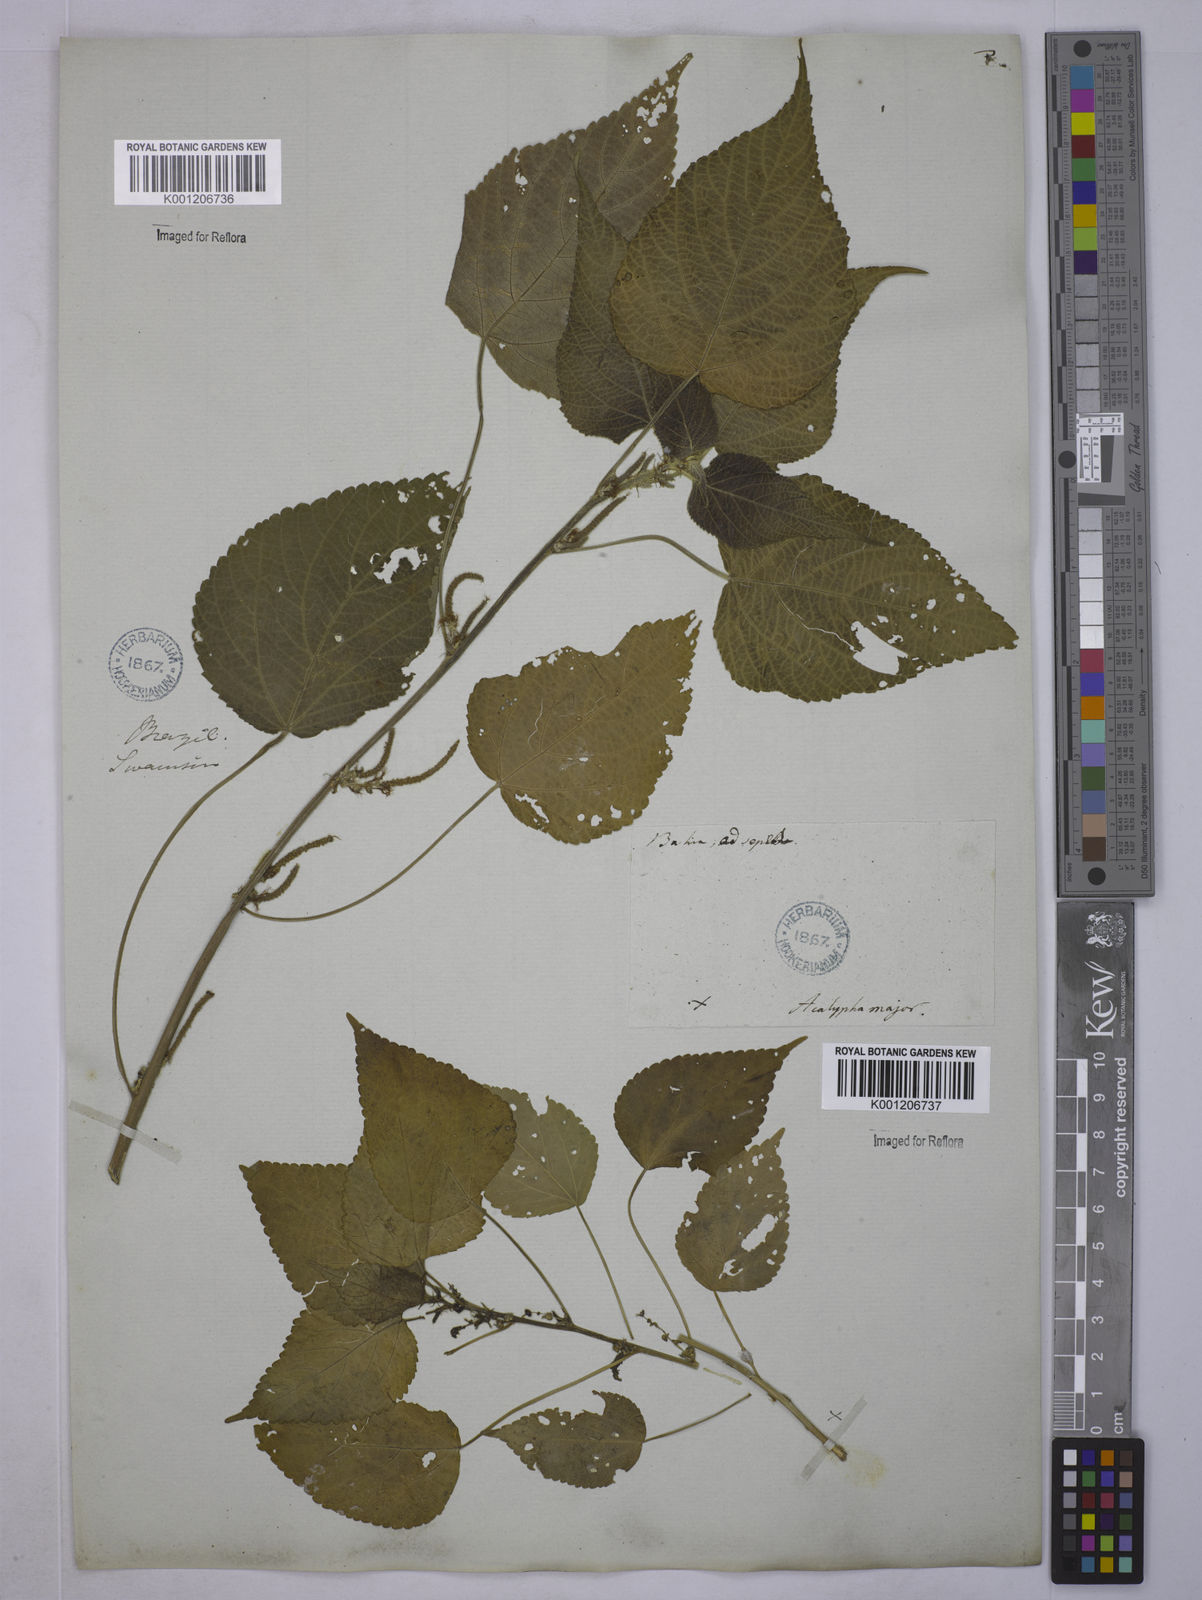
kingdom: Plantae
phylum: Tracheophyta
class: Magnoliopsida
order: Malpighiales
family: Euphorbiaceae
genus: Acalypha
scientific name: Acalypha weddelliana
